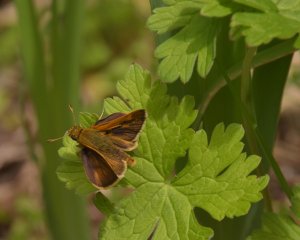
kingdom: Animalia
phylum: Arthropoda
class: Insecta
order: Lepidoptera
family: Hesperiidae
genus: Polites
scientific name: Polites themistocles
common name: Tawny-edged Skipper
